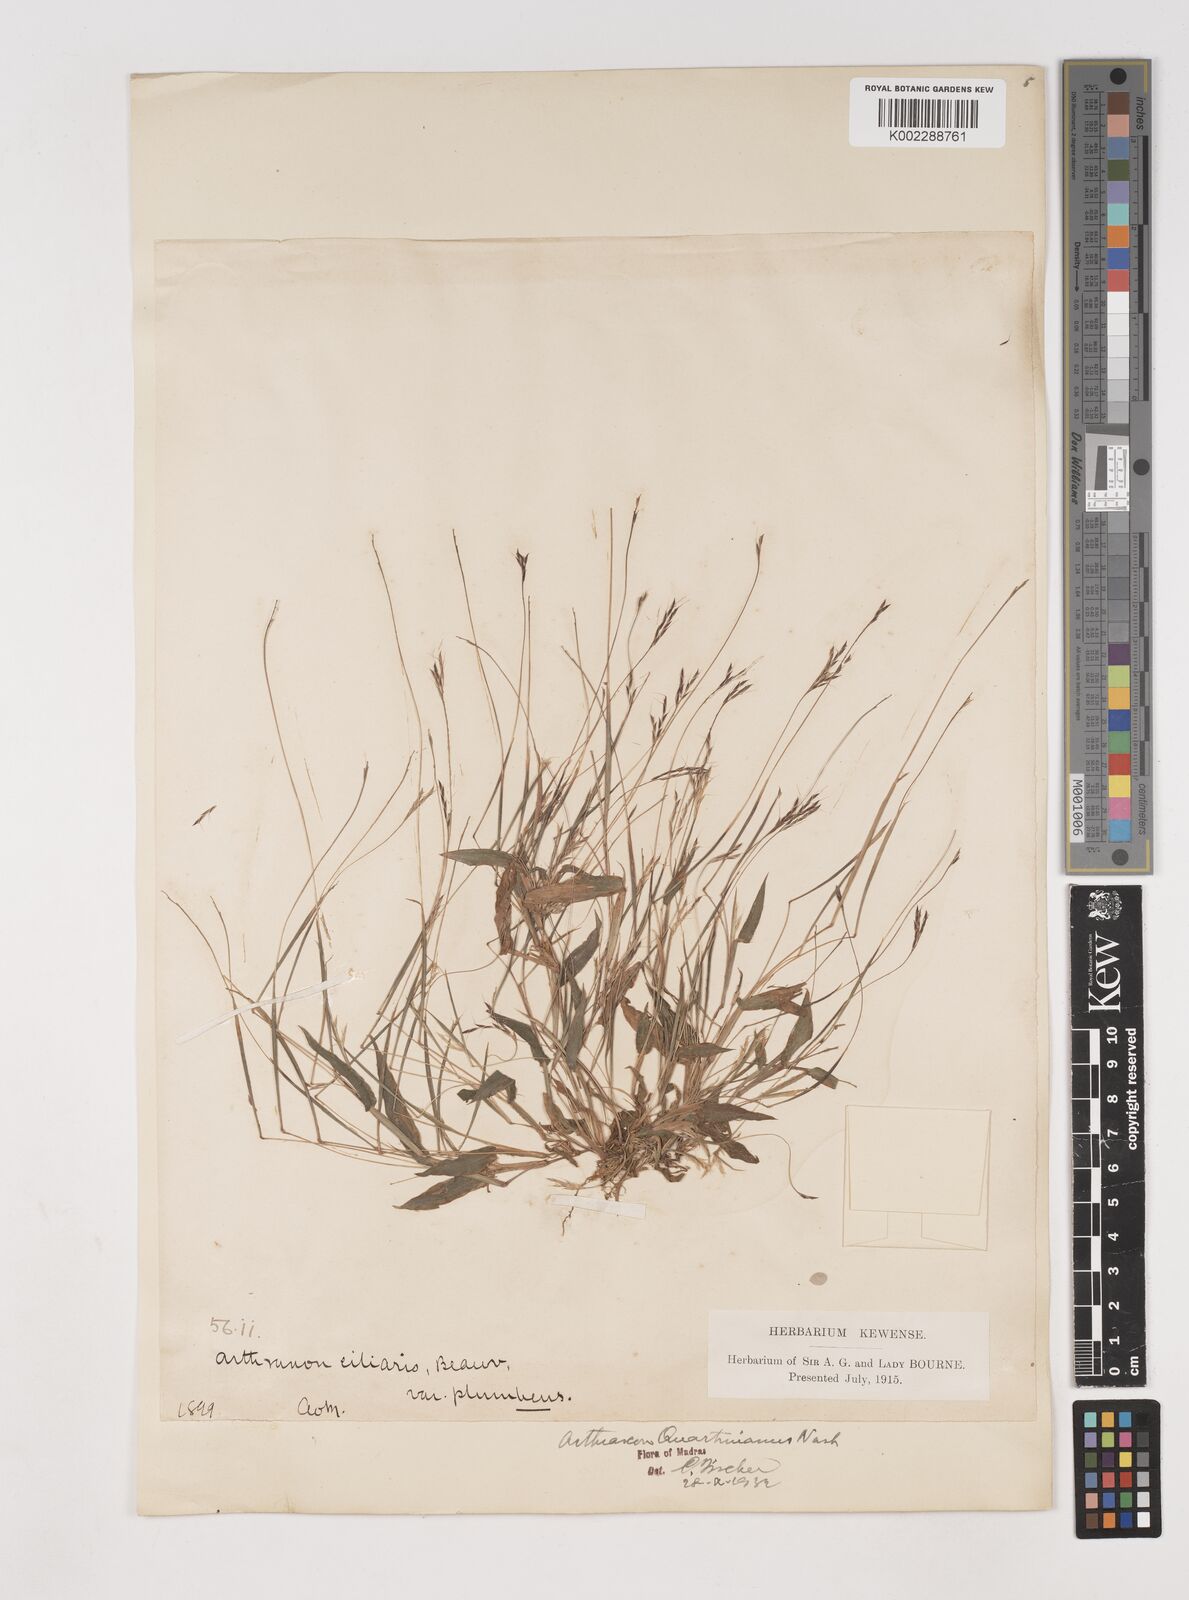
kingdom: Plantae
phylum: Tracheophyta
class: Liliopsida
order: Poales
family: Poaceae
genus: Arthraxon
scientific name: Arthraxon hispidus
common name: Small carpgrass
